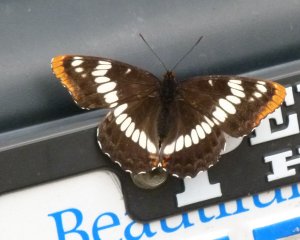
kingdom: Animalia
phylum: Arthropoda
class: Insecta
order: Lepidoptera
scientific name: Lepidoptera
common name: Butterflies
